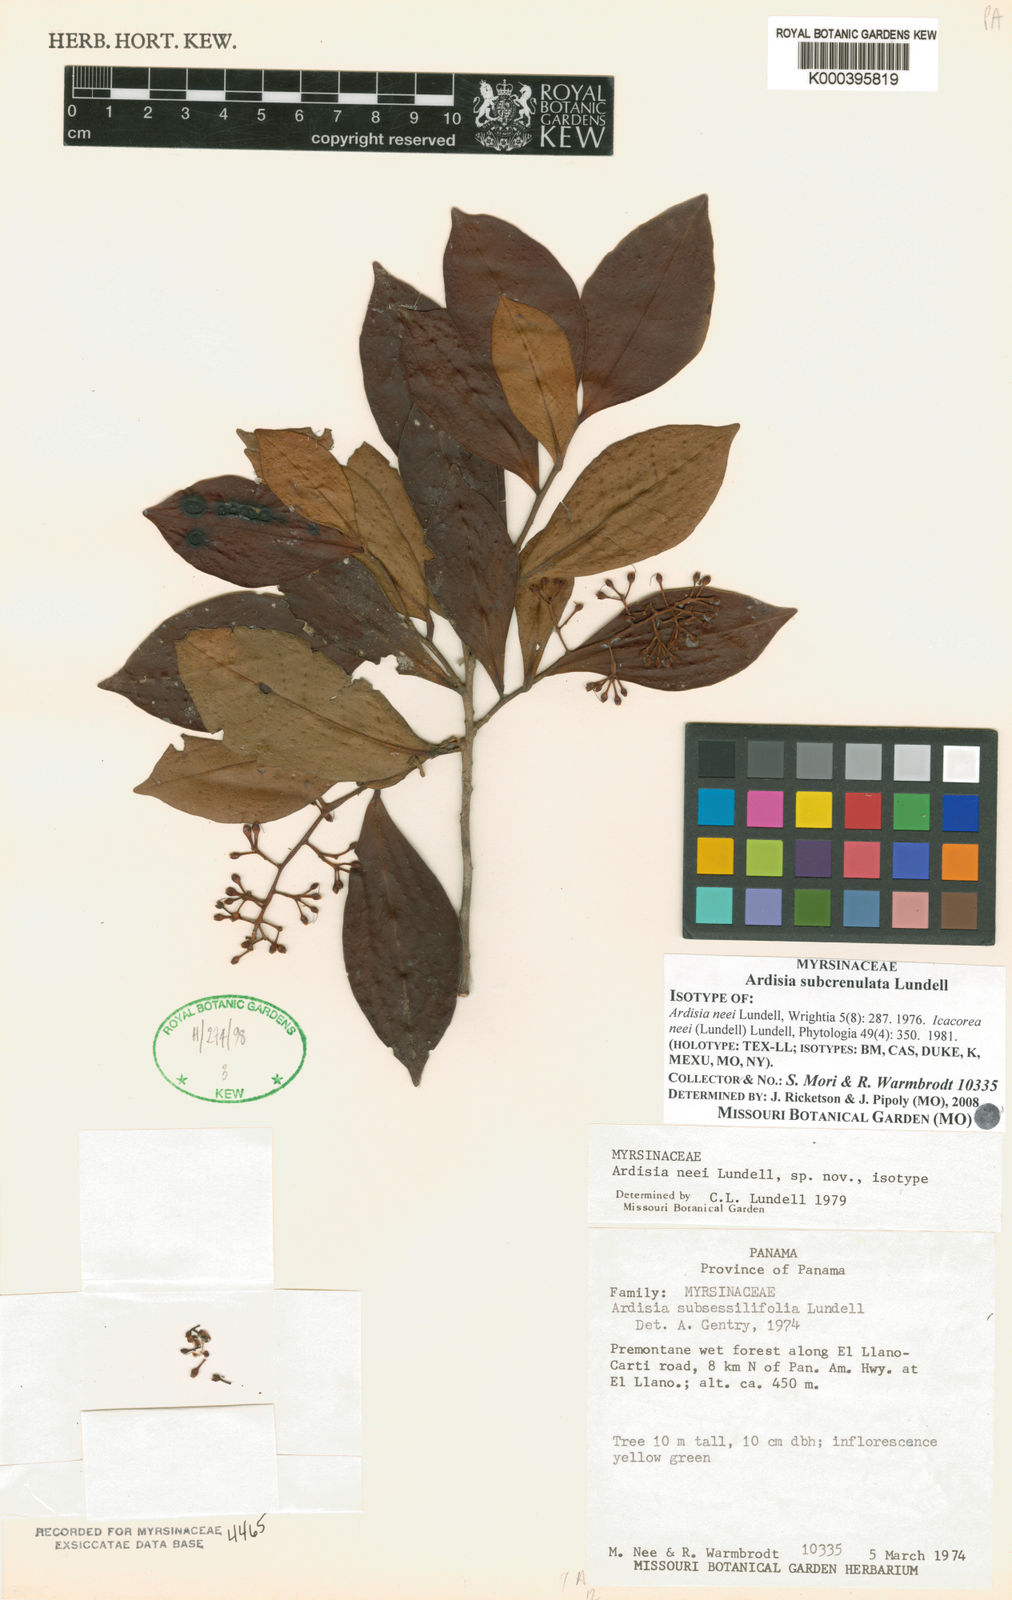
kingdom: Plantae
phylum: Tracheophyta
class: Magnoliopsida
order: Ericales
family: Primulaceae
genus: Ardisia
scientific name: Ardisia subcrenulata
